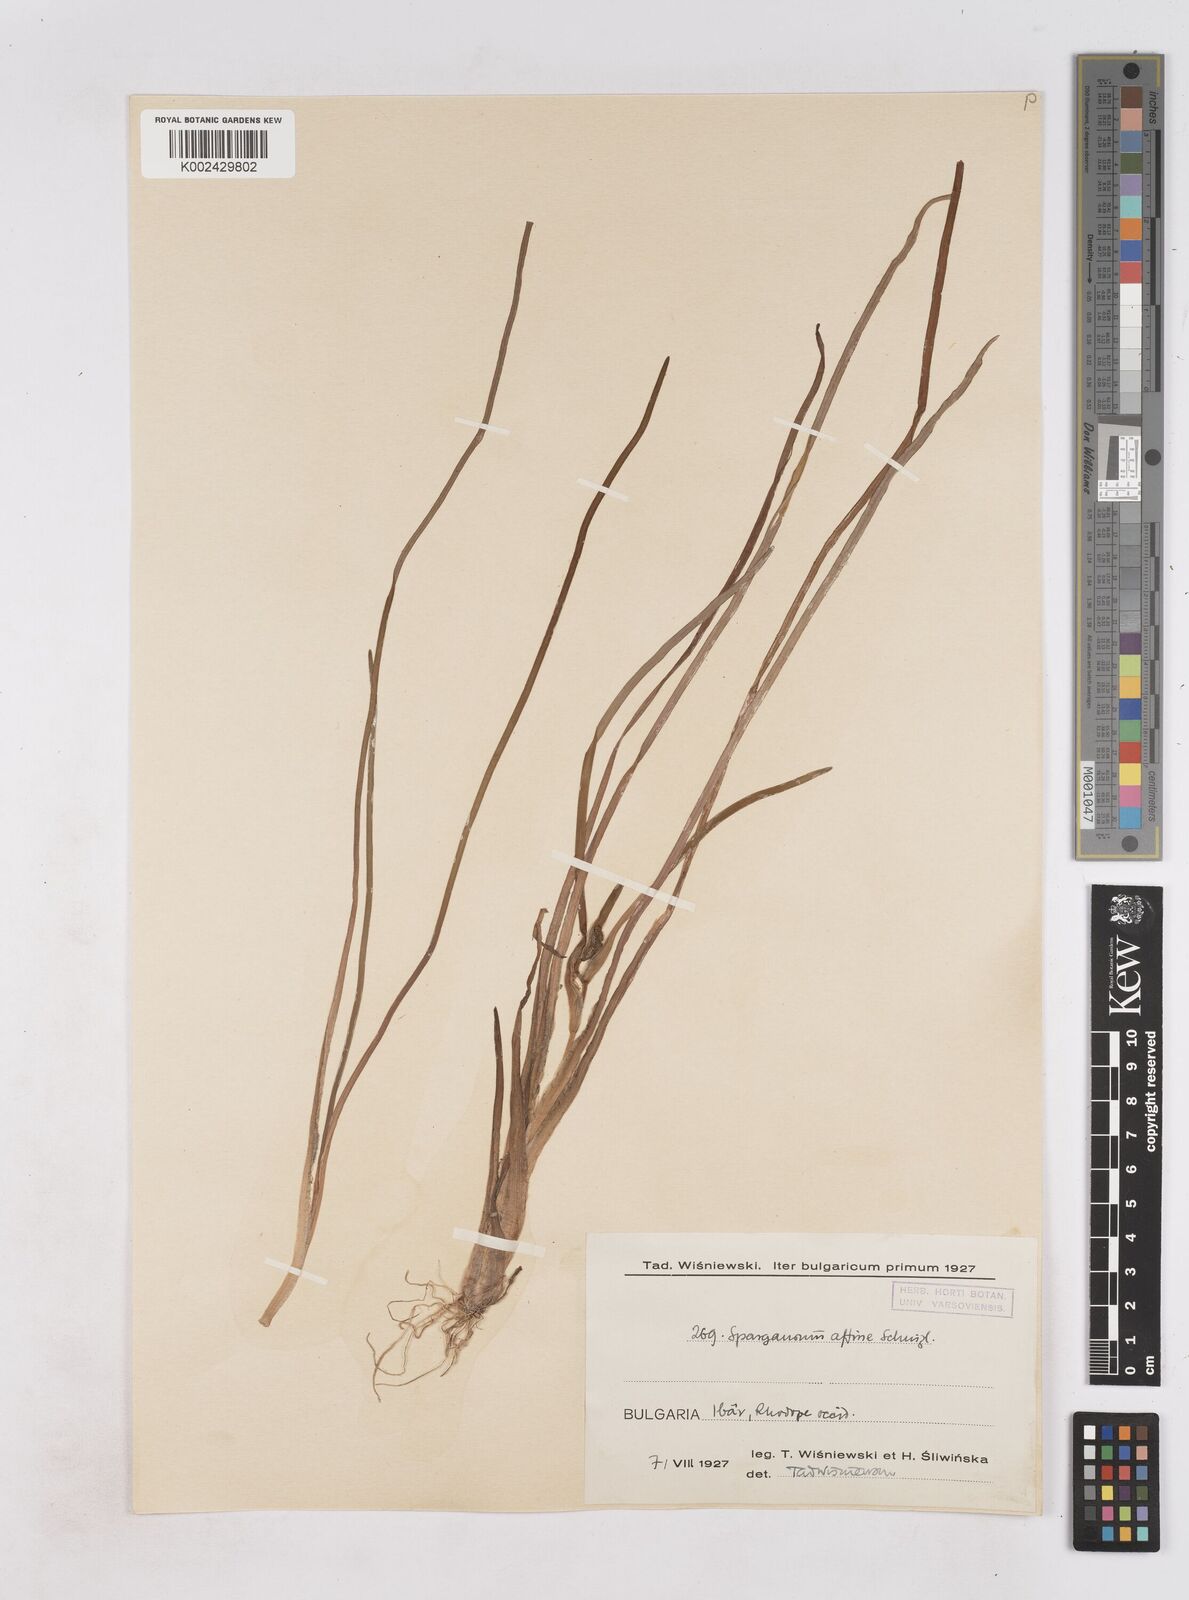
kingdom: Plantae
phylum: Tracheophyta
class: Liliopsida
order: Poales
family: Typhaceae
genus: Sparganium
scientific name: Sparganium angustifolium
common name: Floating bur-reed
